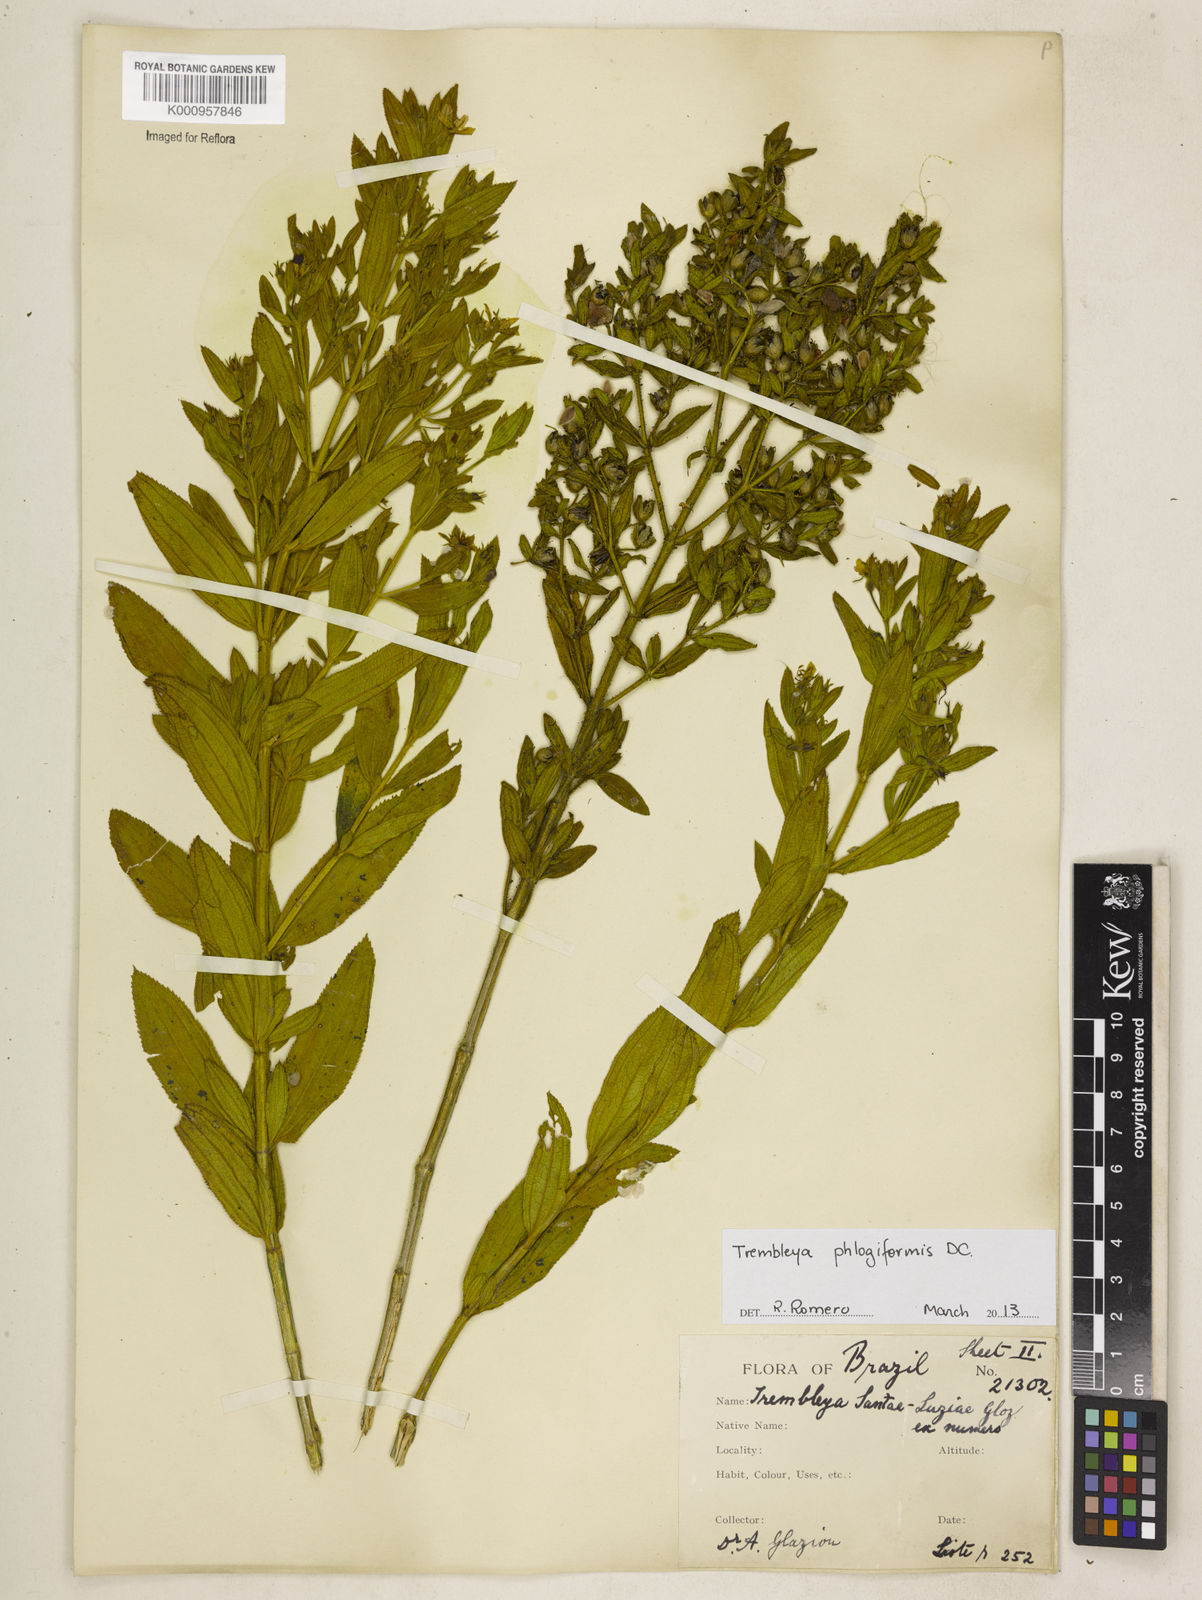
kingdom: Plantae
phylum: Tracheophyta
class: Magnoliopsida
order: Myrtales
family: Melastomataceae
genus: Microlicia
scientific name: Microlicia phlogiformis
